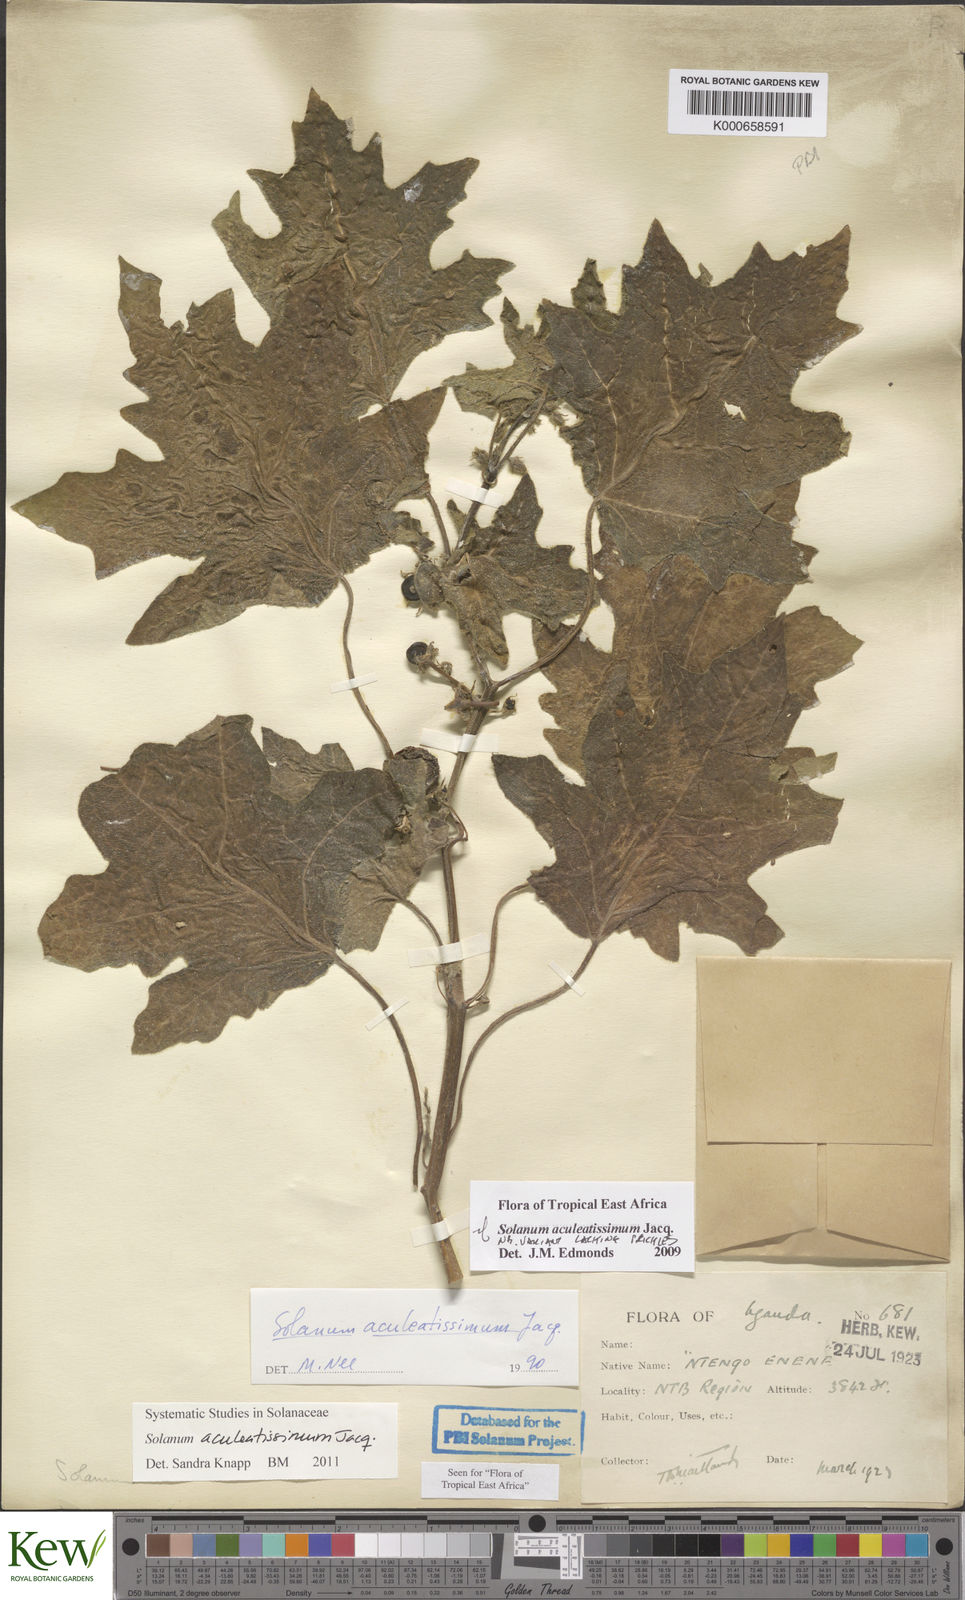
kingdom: Plantae
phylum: Tracheophyta
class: Magnoliopsida
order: Solanales
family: Solanaceae
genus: Solanum
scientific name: Solanum aculeatissimum
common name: Dutch eggplant
